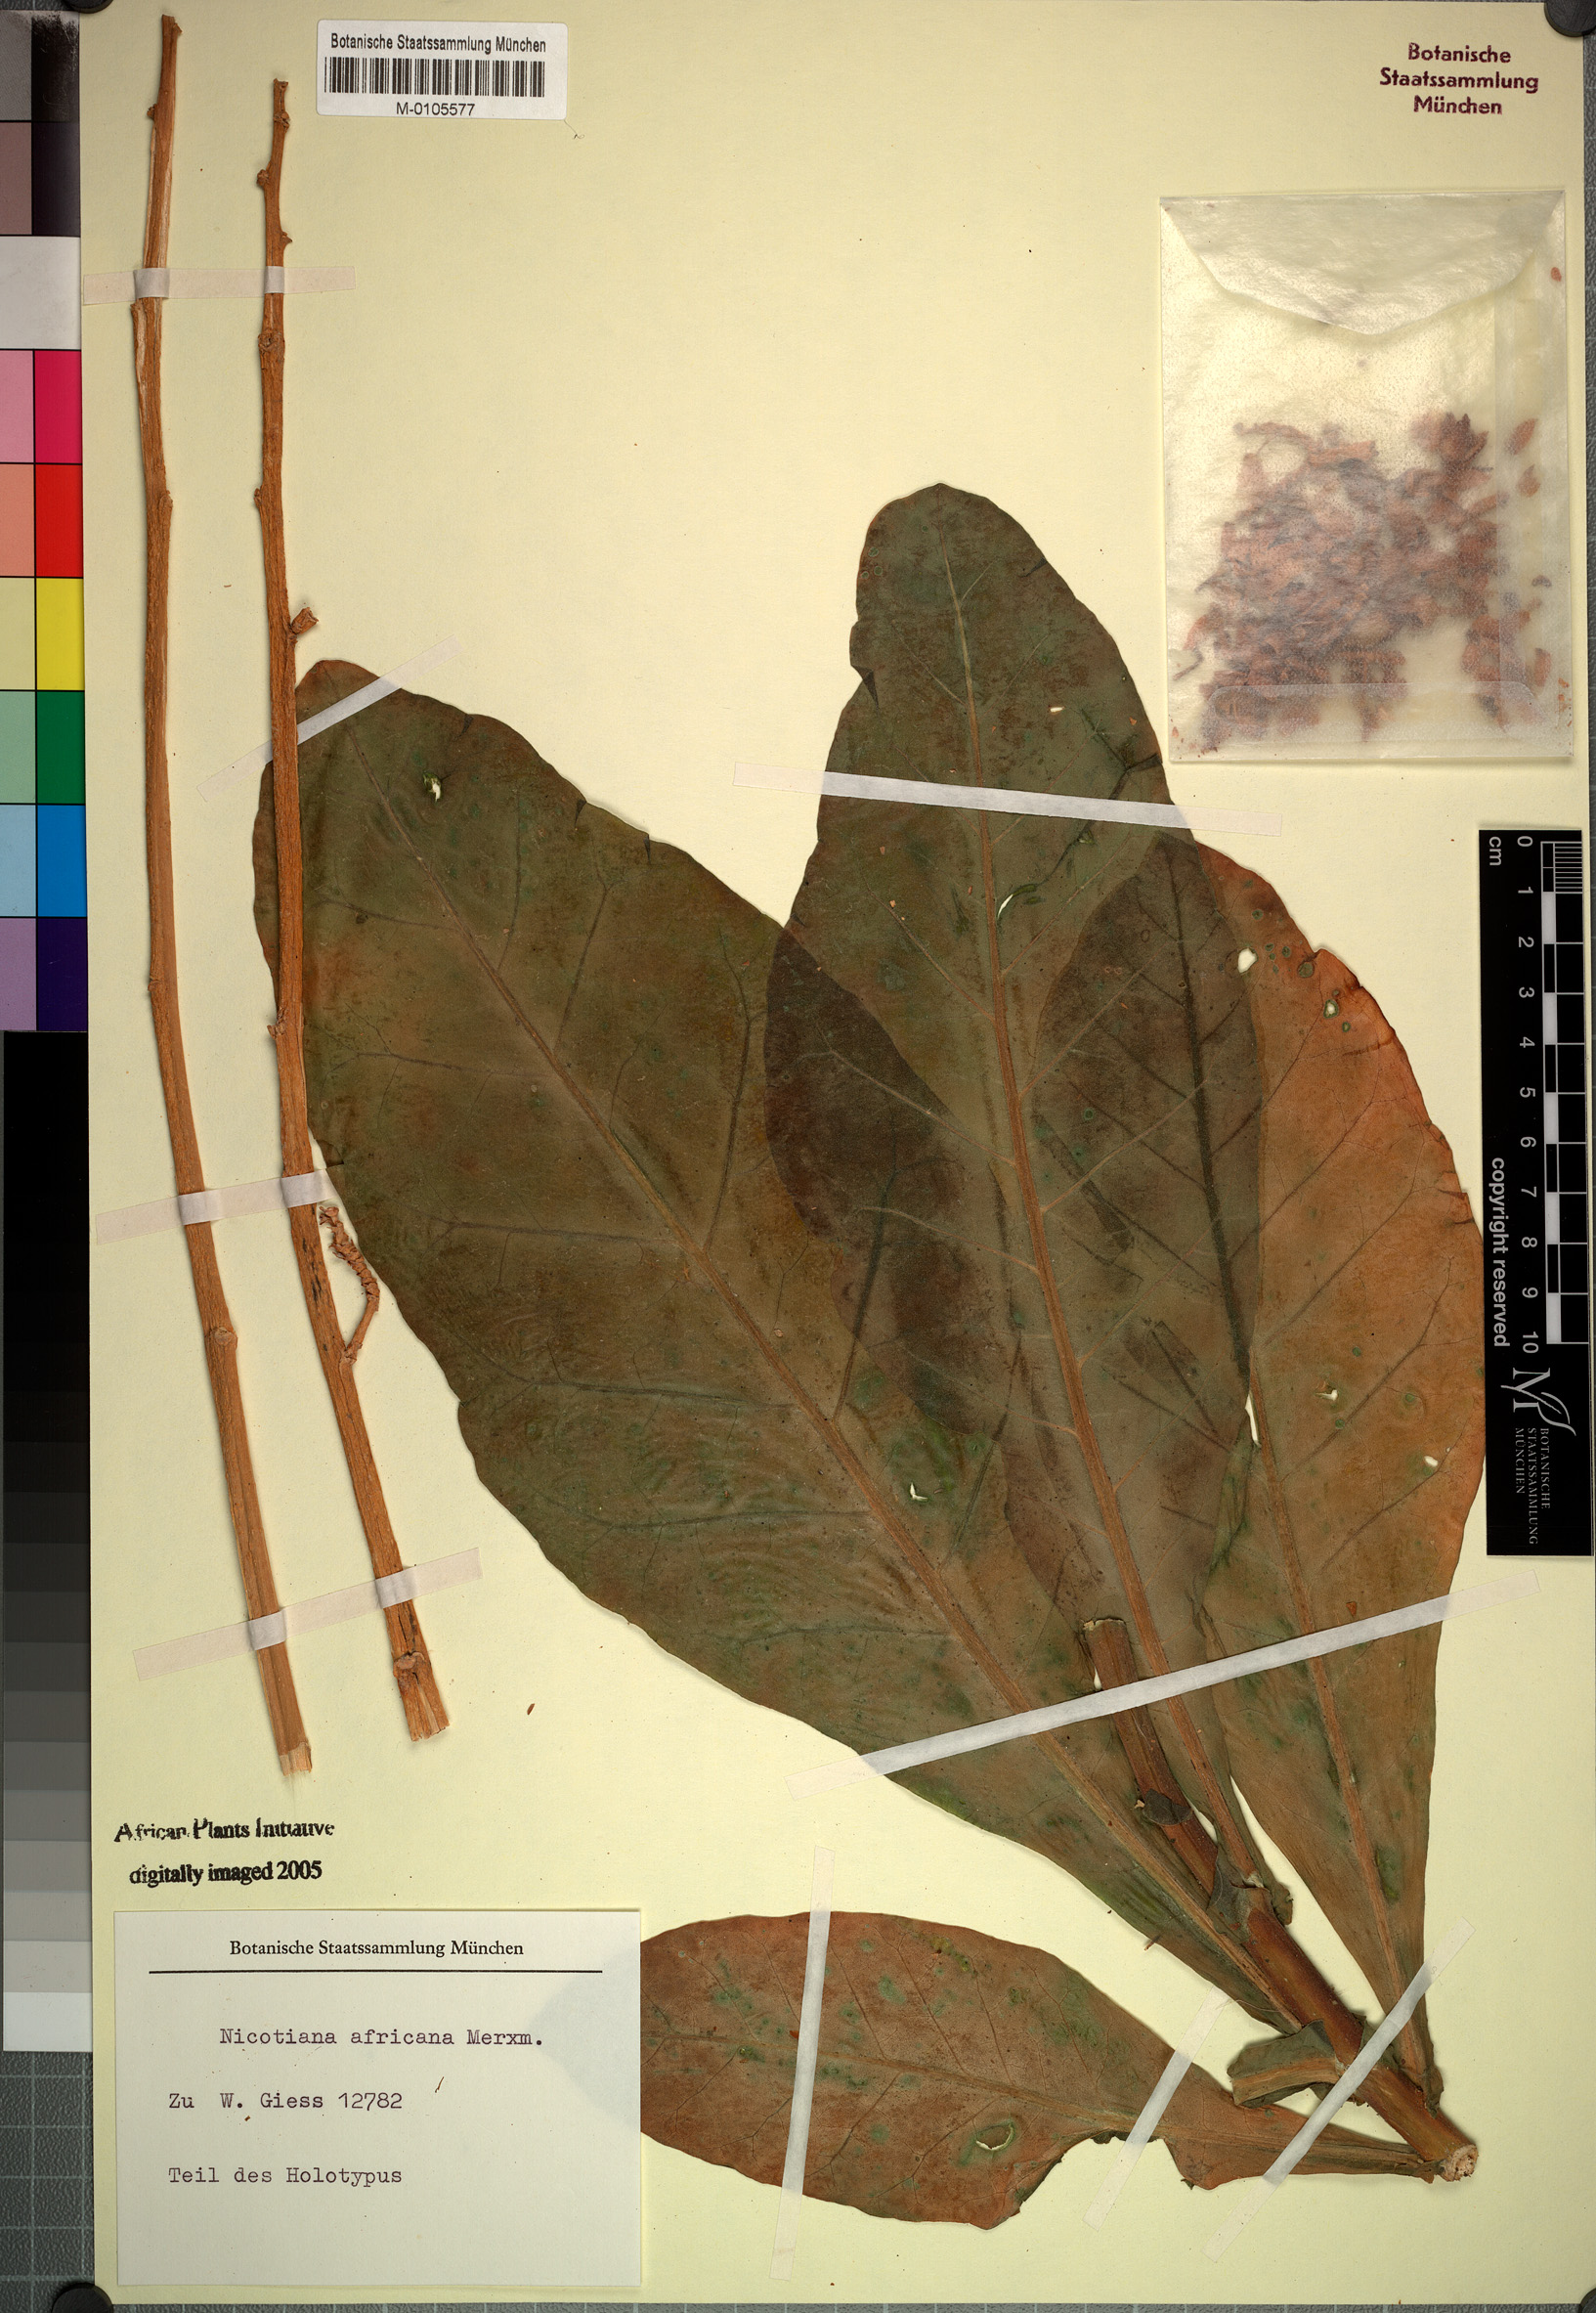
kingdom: Plantae
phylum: Tracheophyta
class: Magnoliopsida
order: Solanales
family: Solanaceae
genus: Nicotiana
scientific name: Nicotiana africana
